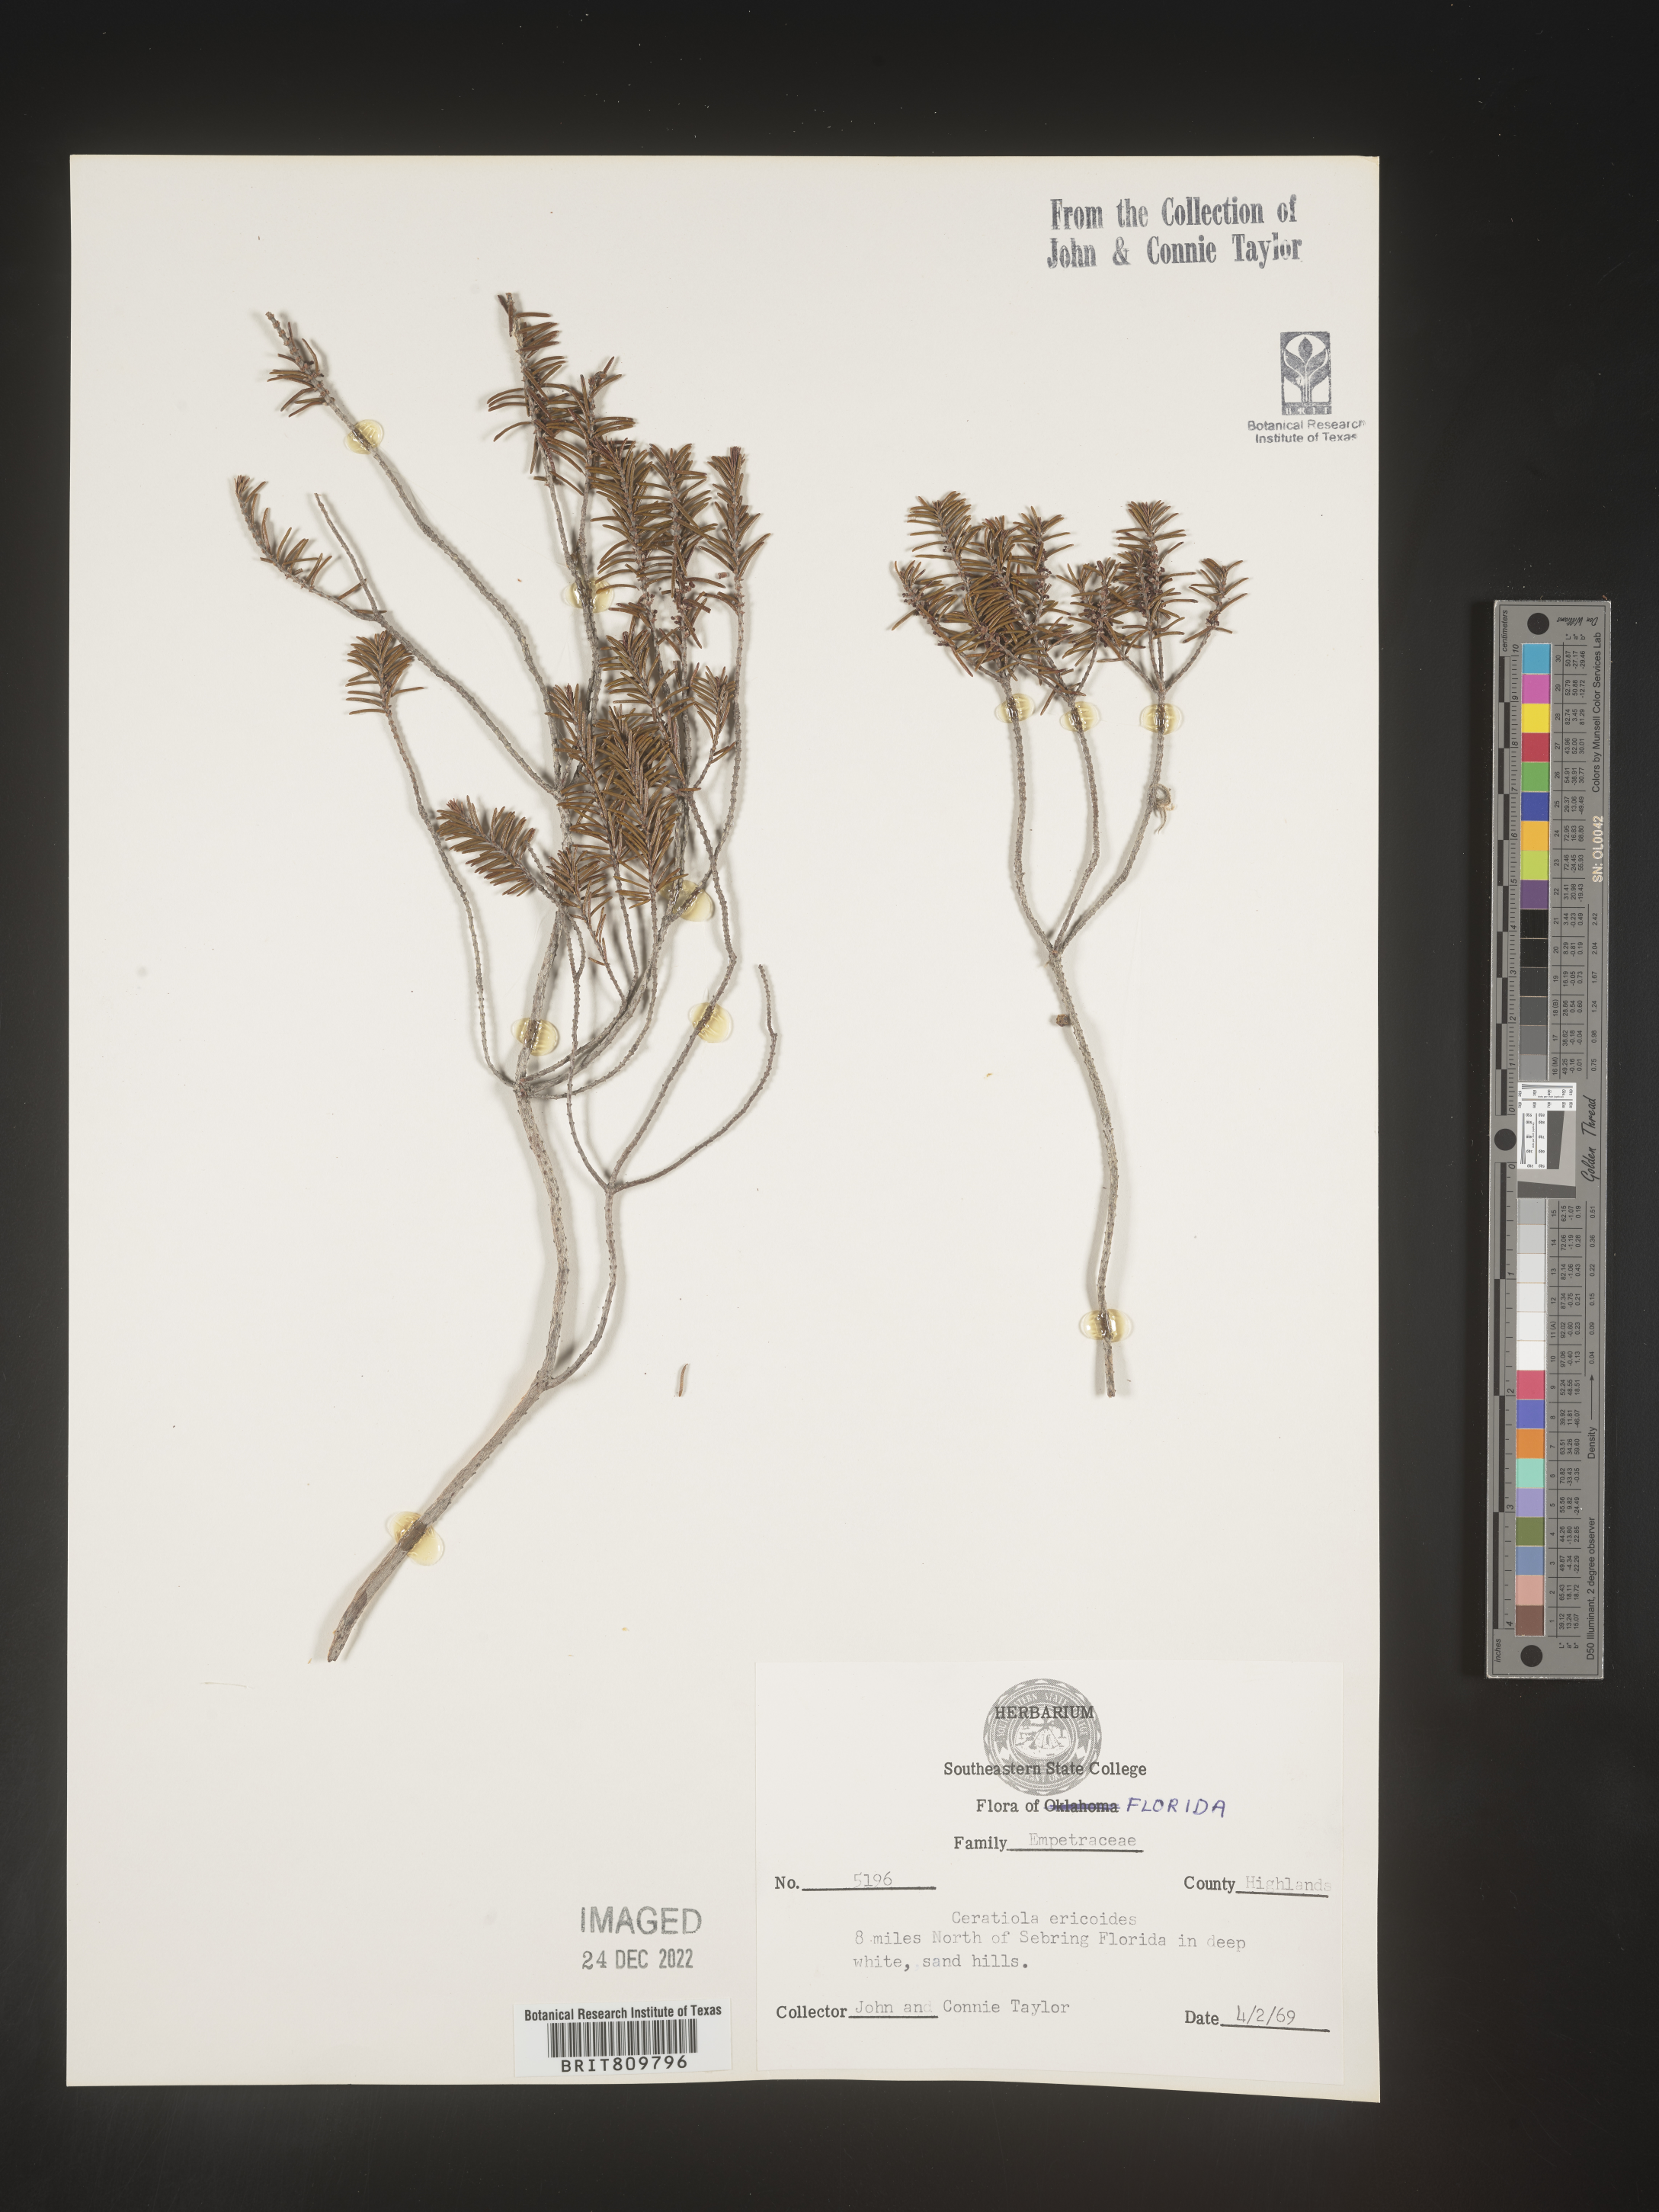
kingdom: Plantae
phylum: Tracheophyta
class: Magnoliopsida
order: Ericales
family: Ericaceae
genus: Ceratiola
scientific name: Ceratiola ericoides
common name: Sandhill-rosemary
